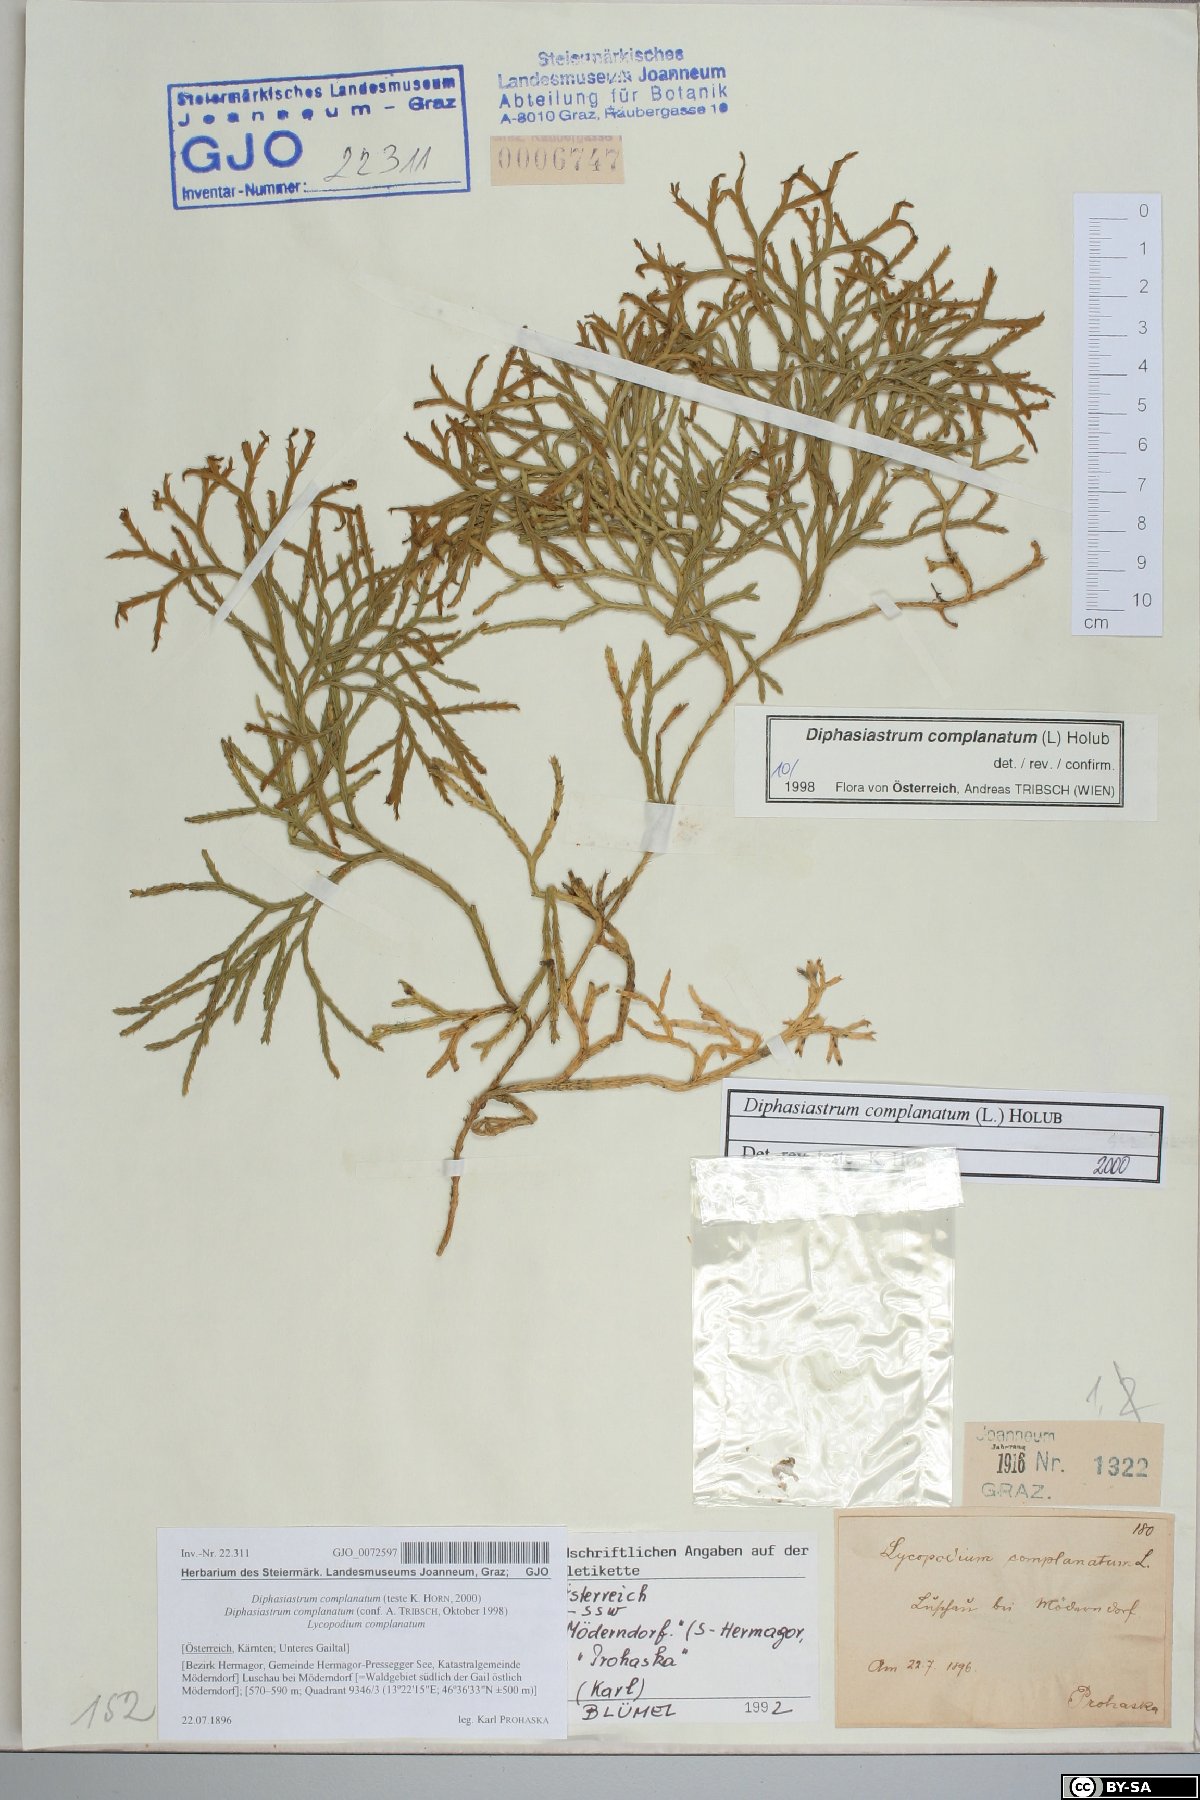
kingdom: Plantae
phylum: Tracheophyta
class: Lycopodiopsida
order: Lycopodiales
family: Lycopodiaceae
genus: Diphasiastrum
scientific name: Diphasiastrum complanatum
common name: Northern running-pine
